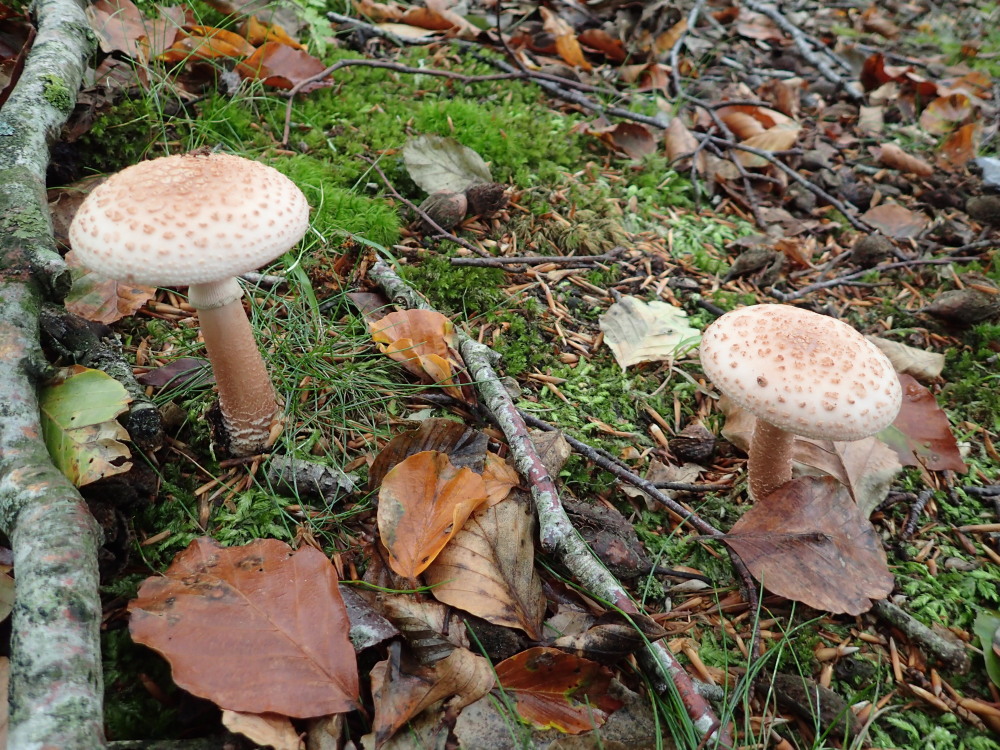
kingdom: Fungi
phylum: Basidiomycota
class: Agaricomycetes
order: Agaricales
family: Amanitaceae
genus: Amanita
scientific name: Amanita rubescens
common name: rødmende fluesvamp
